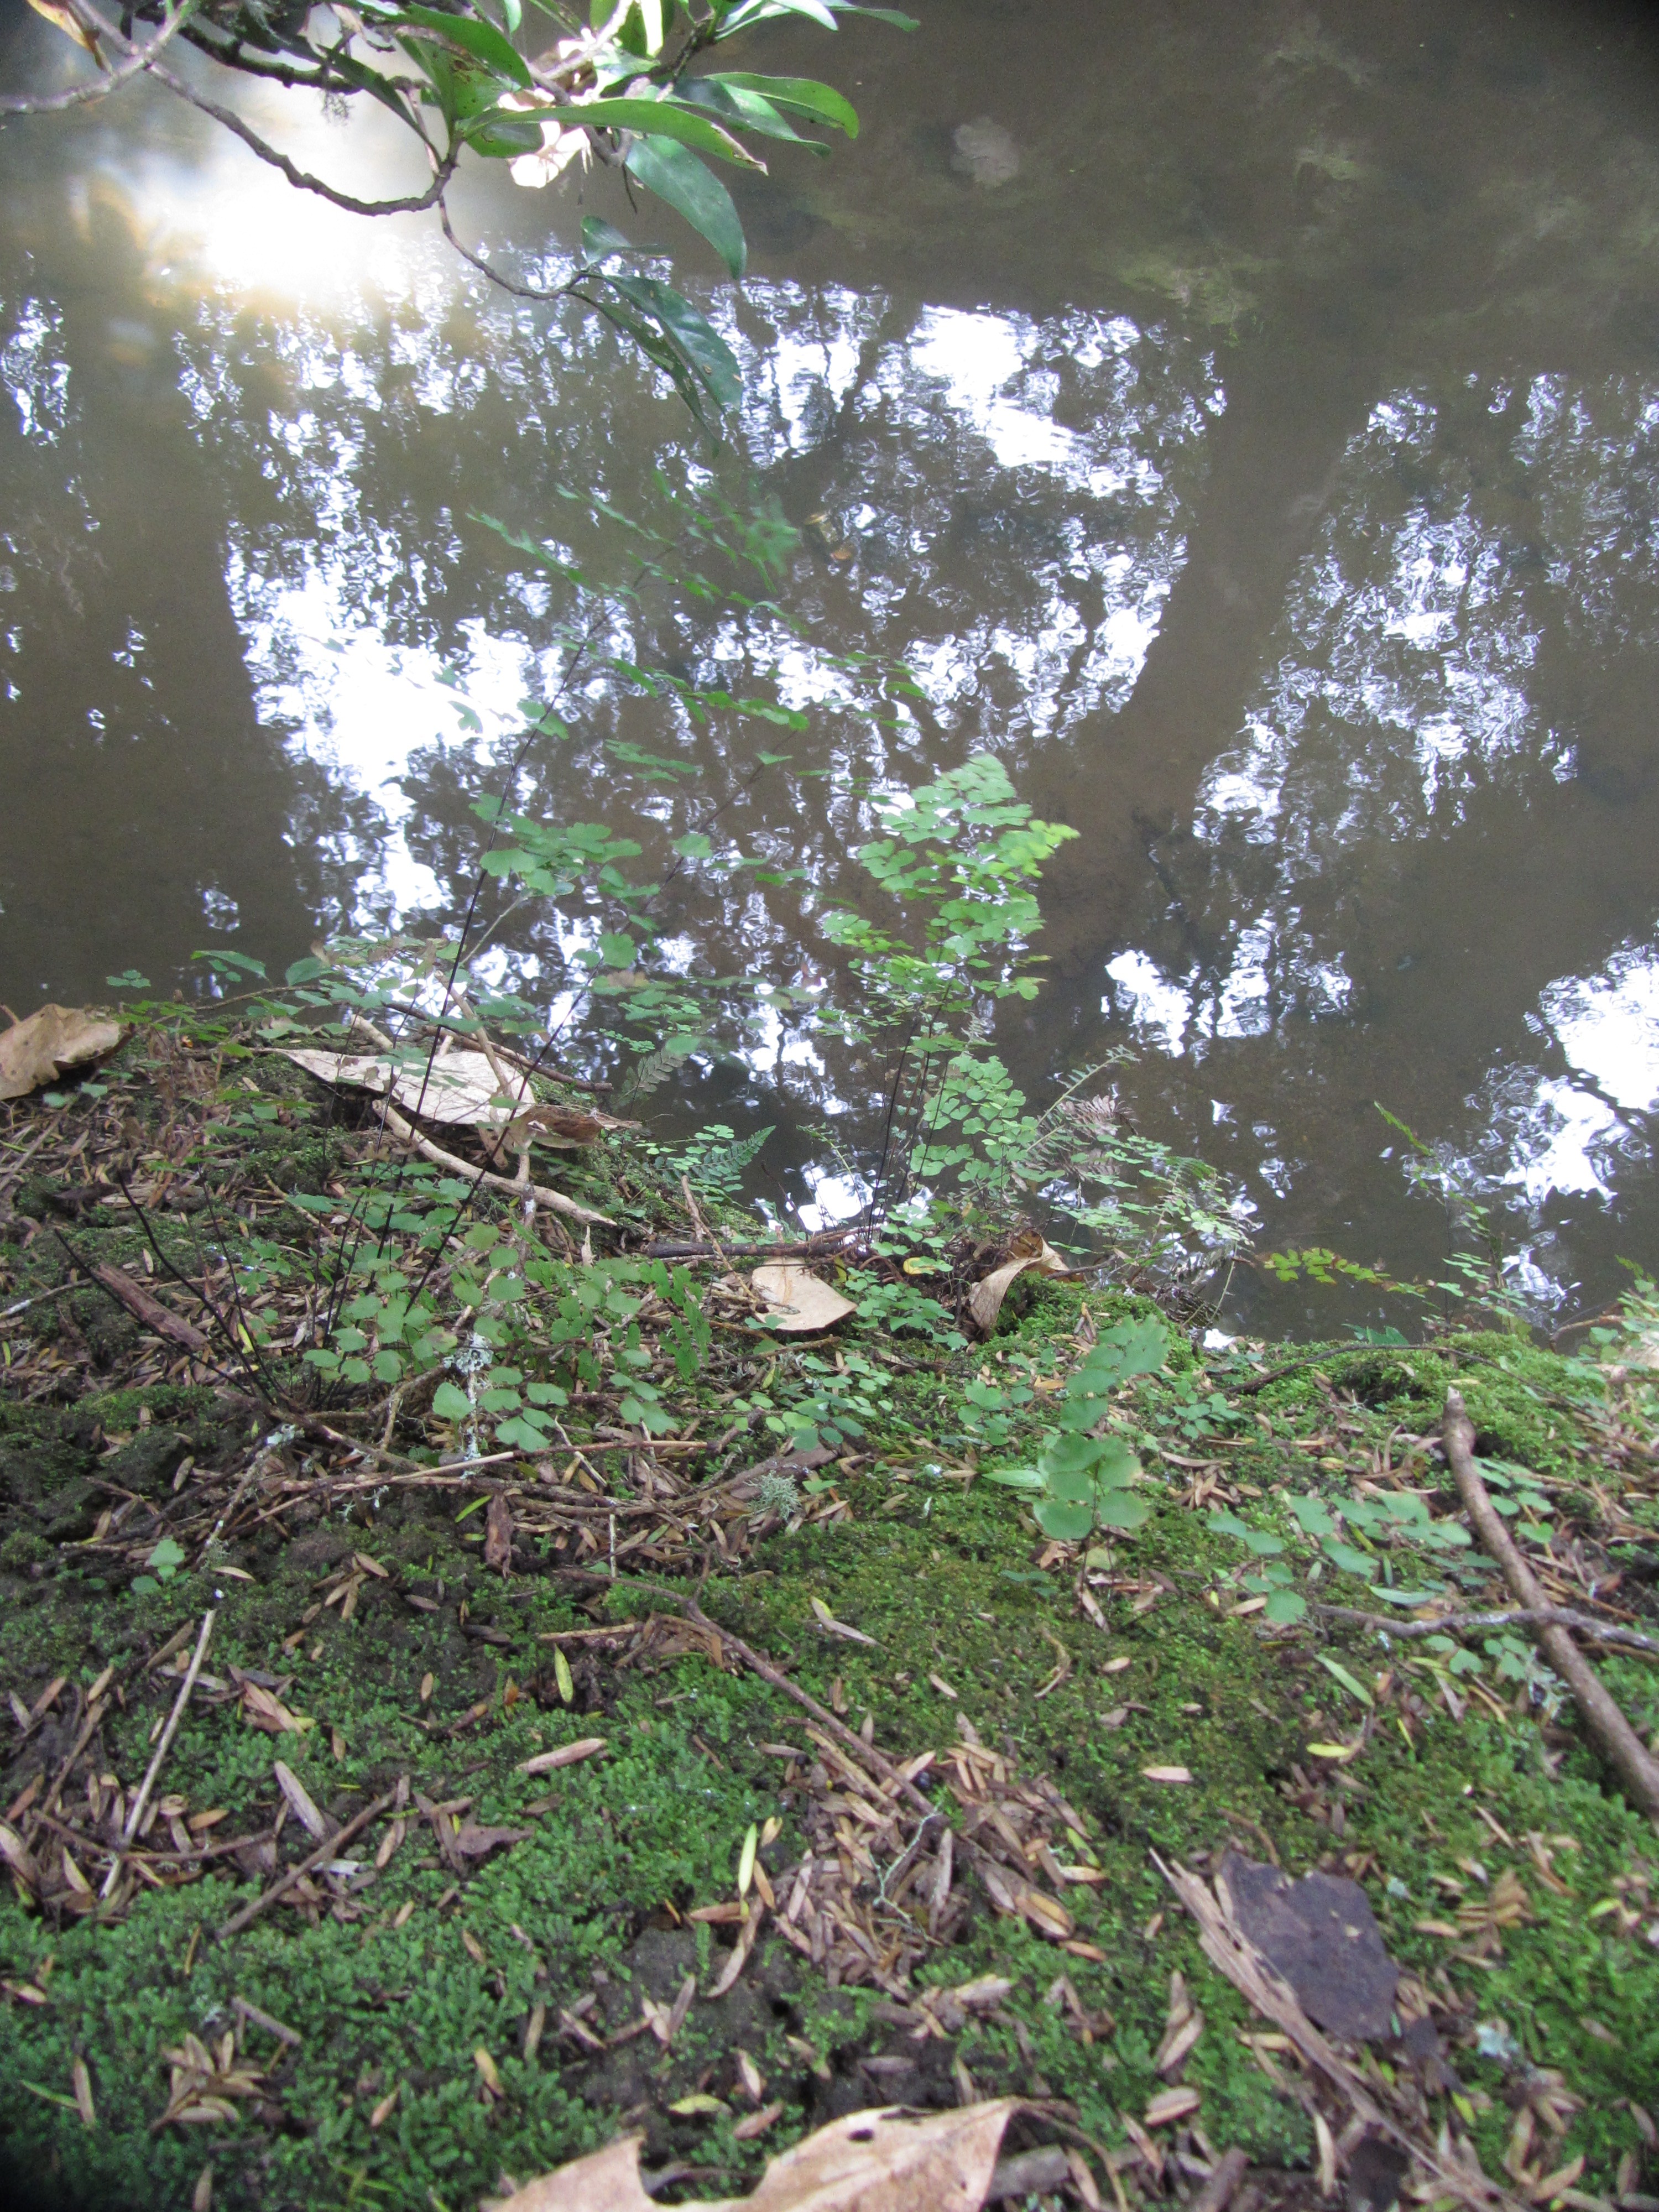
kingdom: Plantae
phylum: Tracheophyta
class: Polypodiopsida
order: Polypodiales
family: Pteridaceae
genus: Adiantum
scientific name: Adiantum raddianum
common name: Delta maidenhair fern
